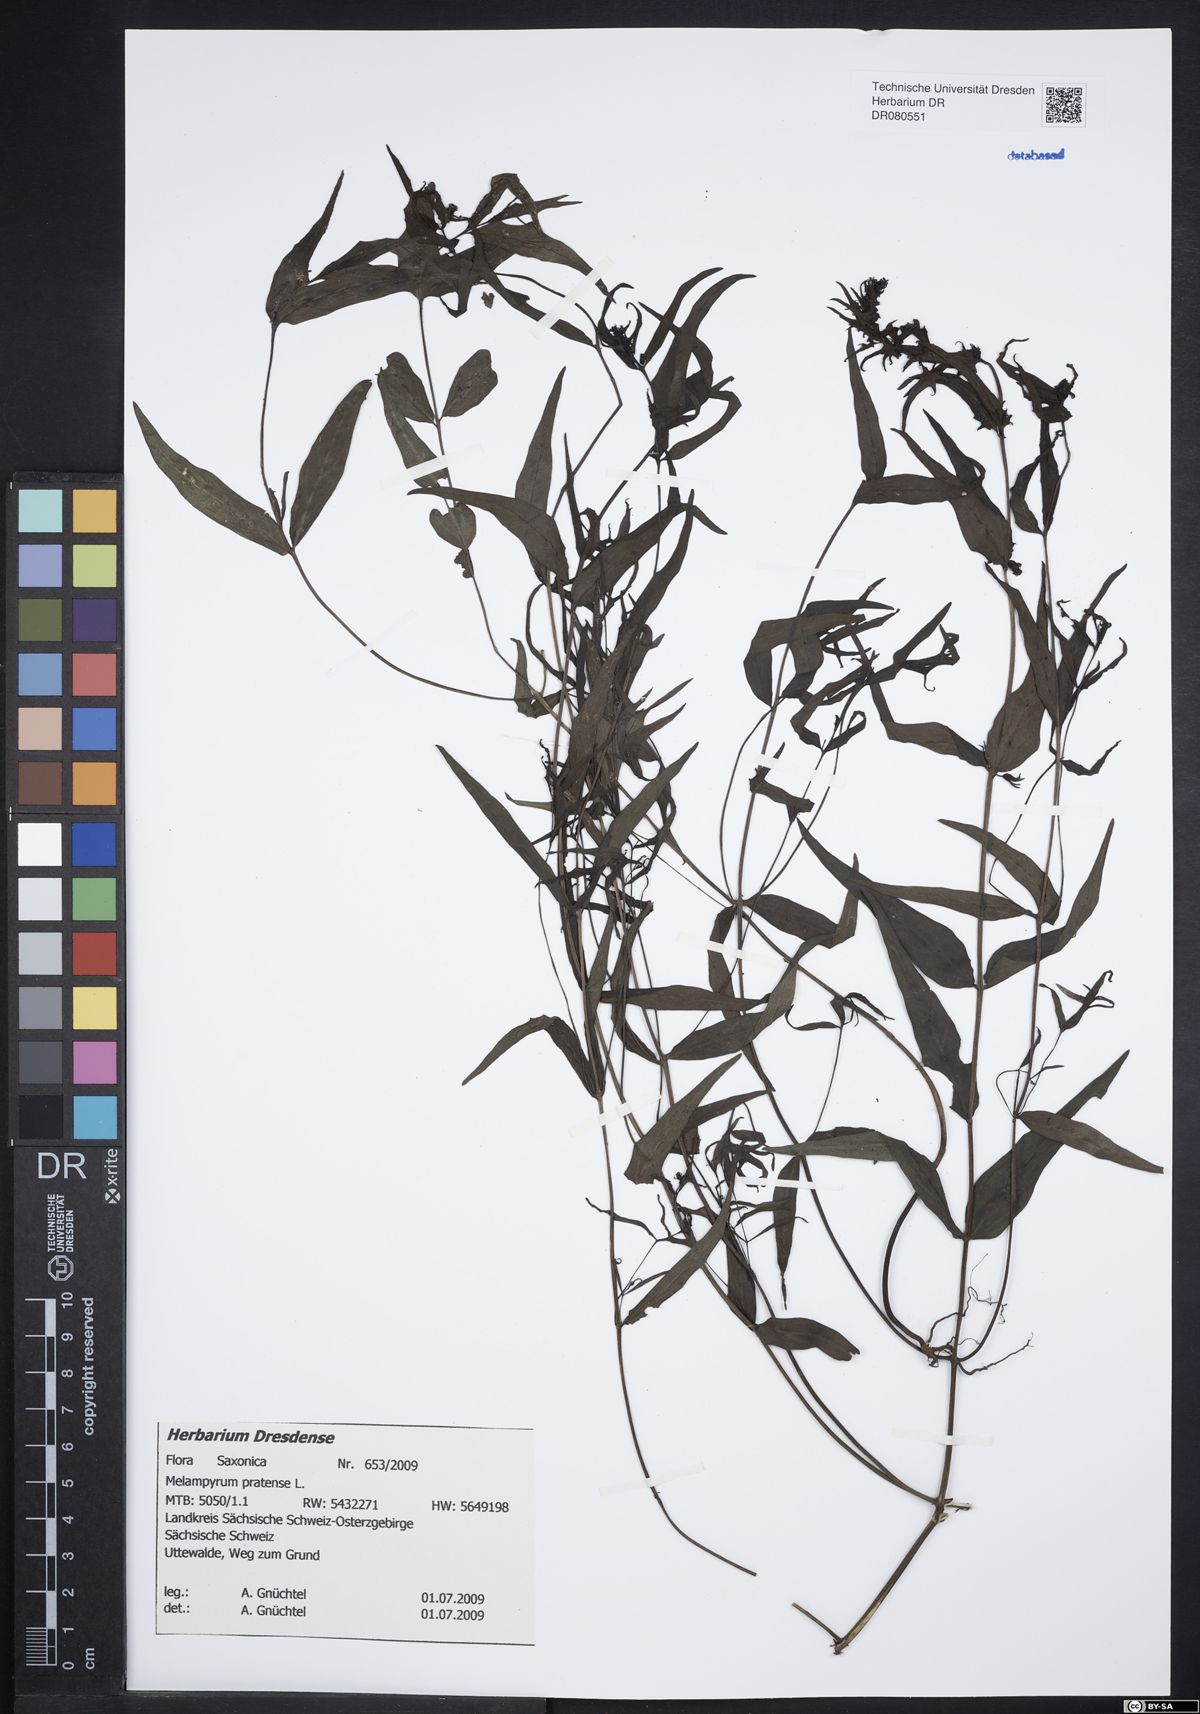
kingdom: Plantae
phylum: Tracheophyta
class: Magnoliopsida
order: Lamiales
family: Orobanchaceae
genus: Melampyrum
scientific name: Melampyrum pratense
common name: Common cow-wheat
